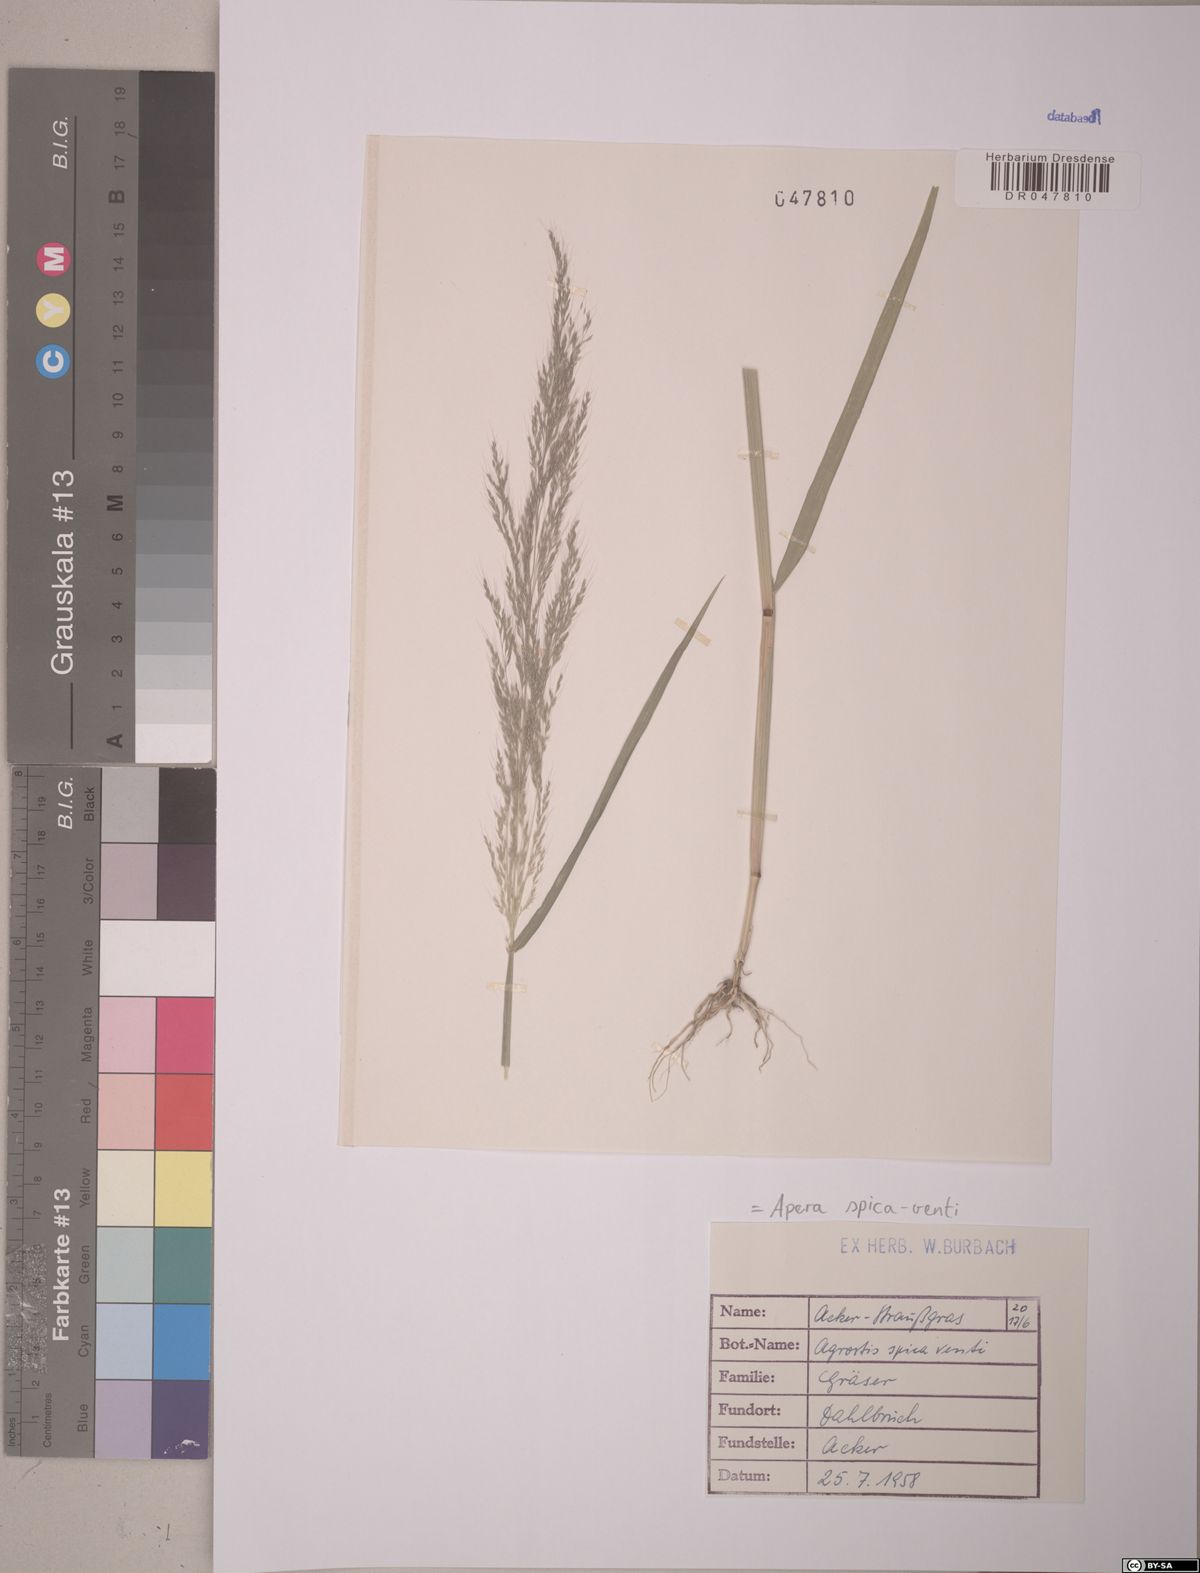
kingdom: Plantae
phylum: Tracheophyta
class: Liliopsida
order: Poales
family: Poaceae
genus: Apera
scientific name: Apera spica-venti
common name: Loose silky-bent
